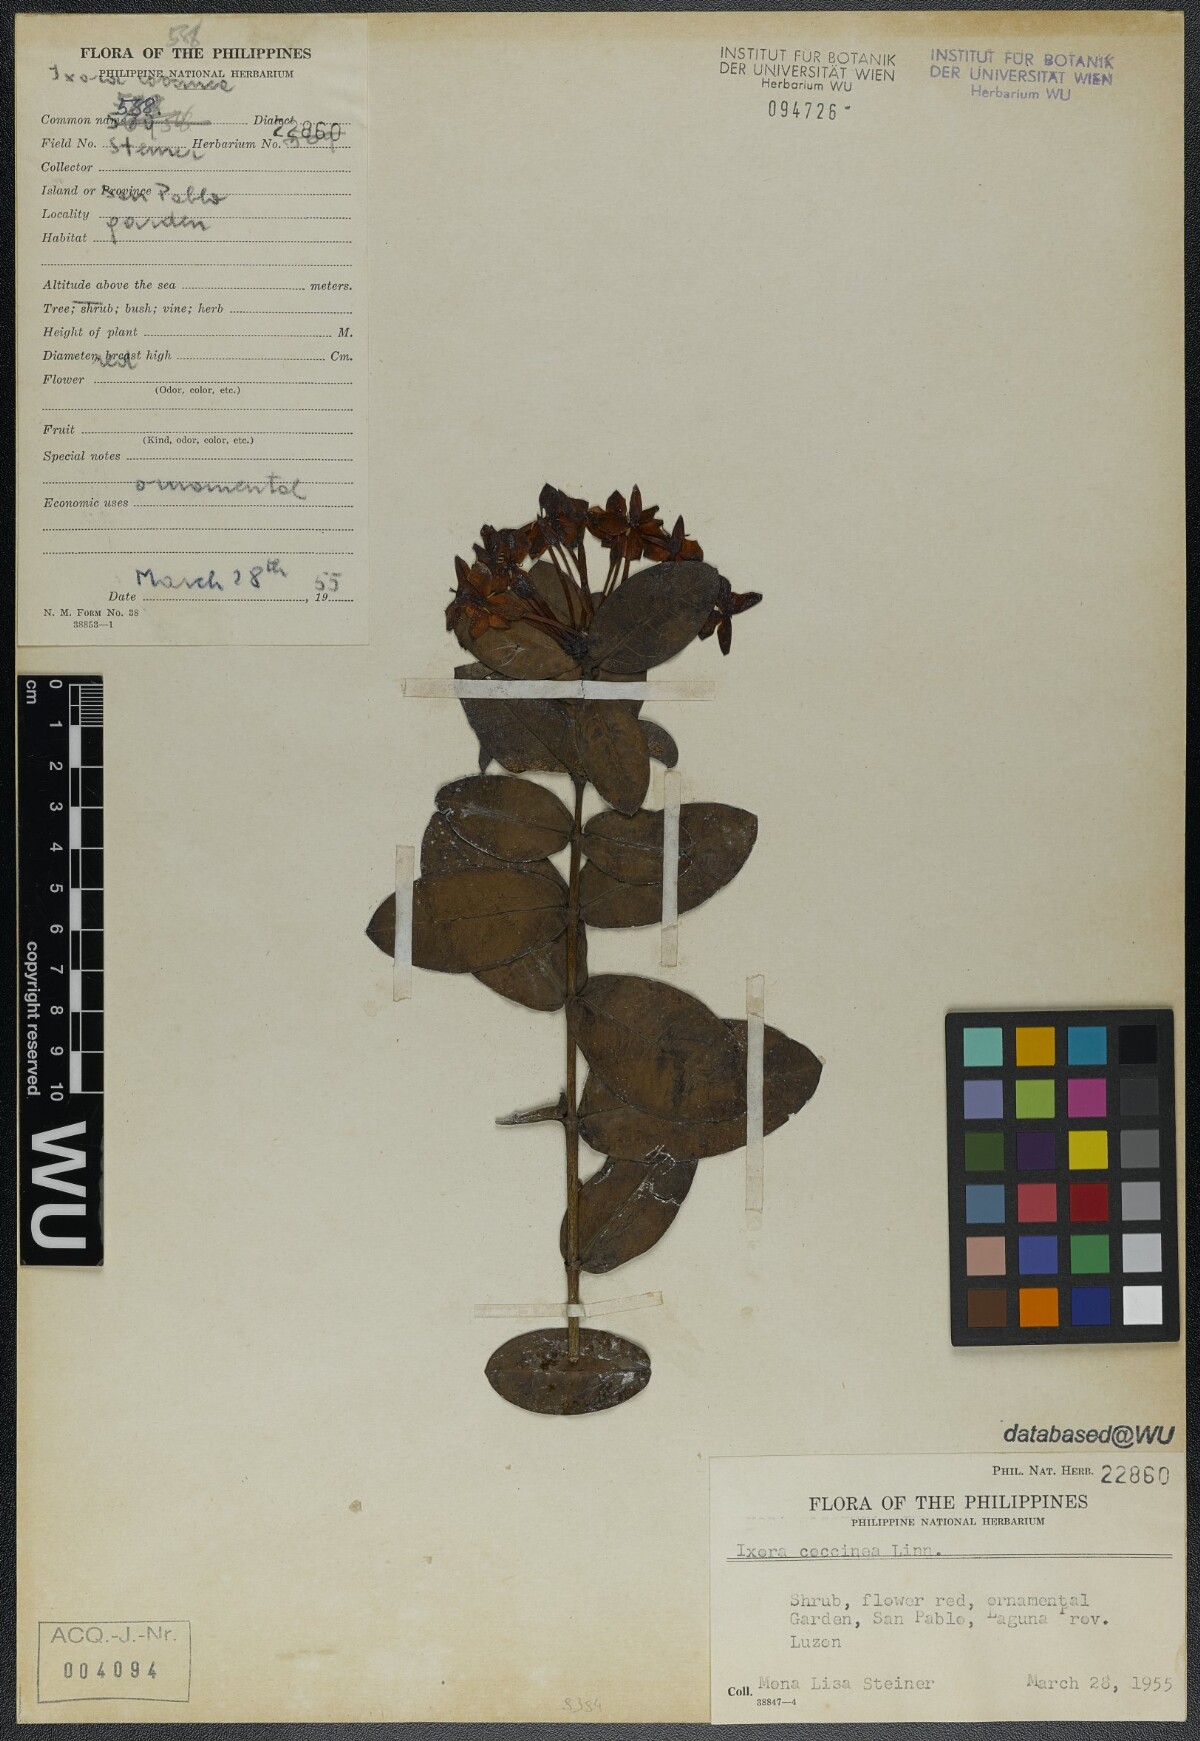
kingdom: Plantae
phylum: Tracheophyta
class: Magnoliopsida
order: Gentianales
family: Rubiaceae
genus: Ixora
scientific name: Ixora coccinea
